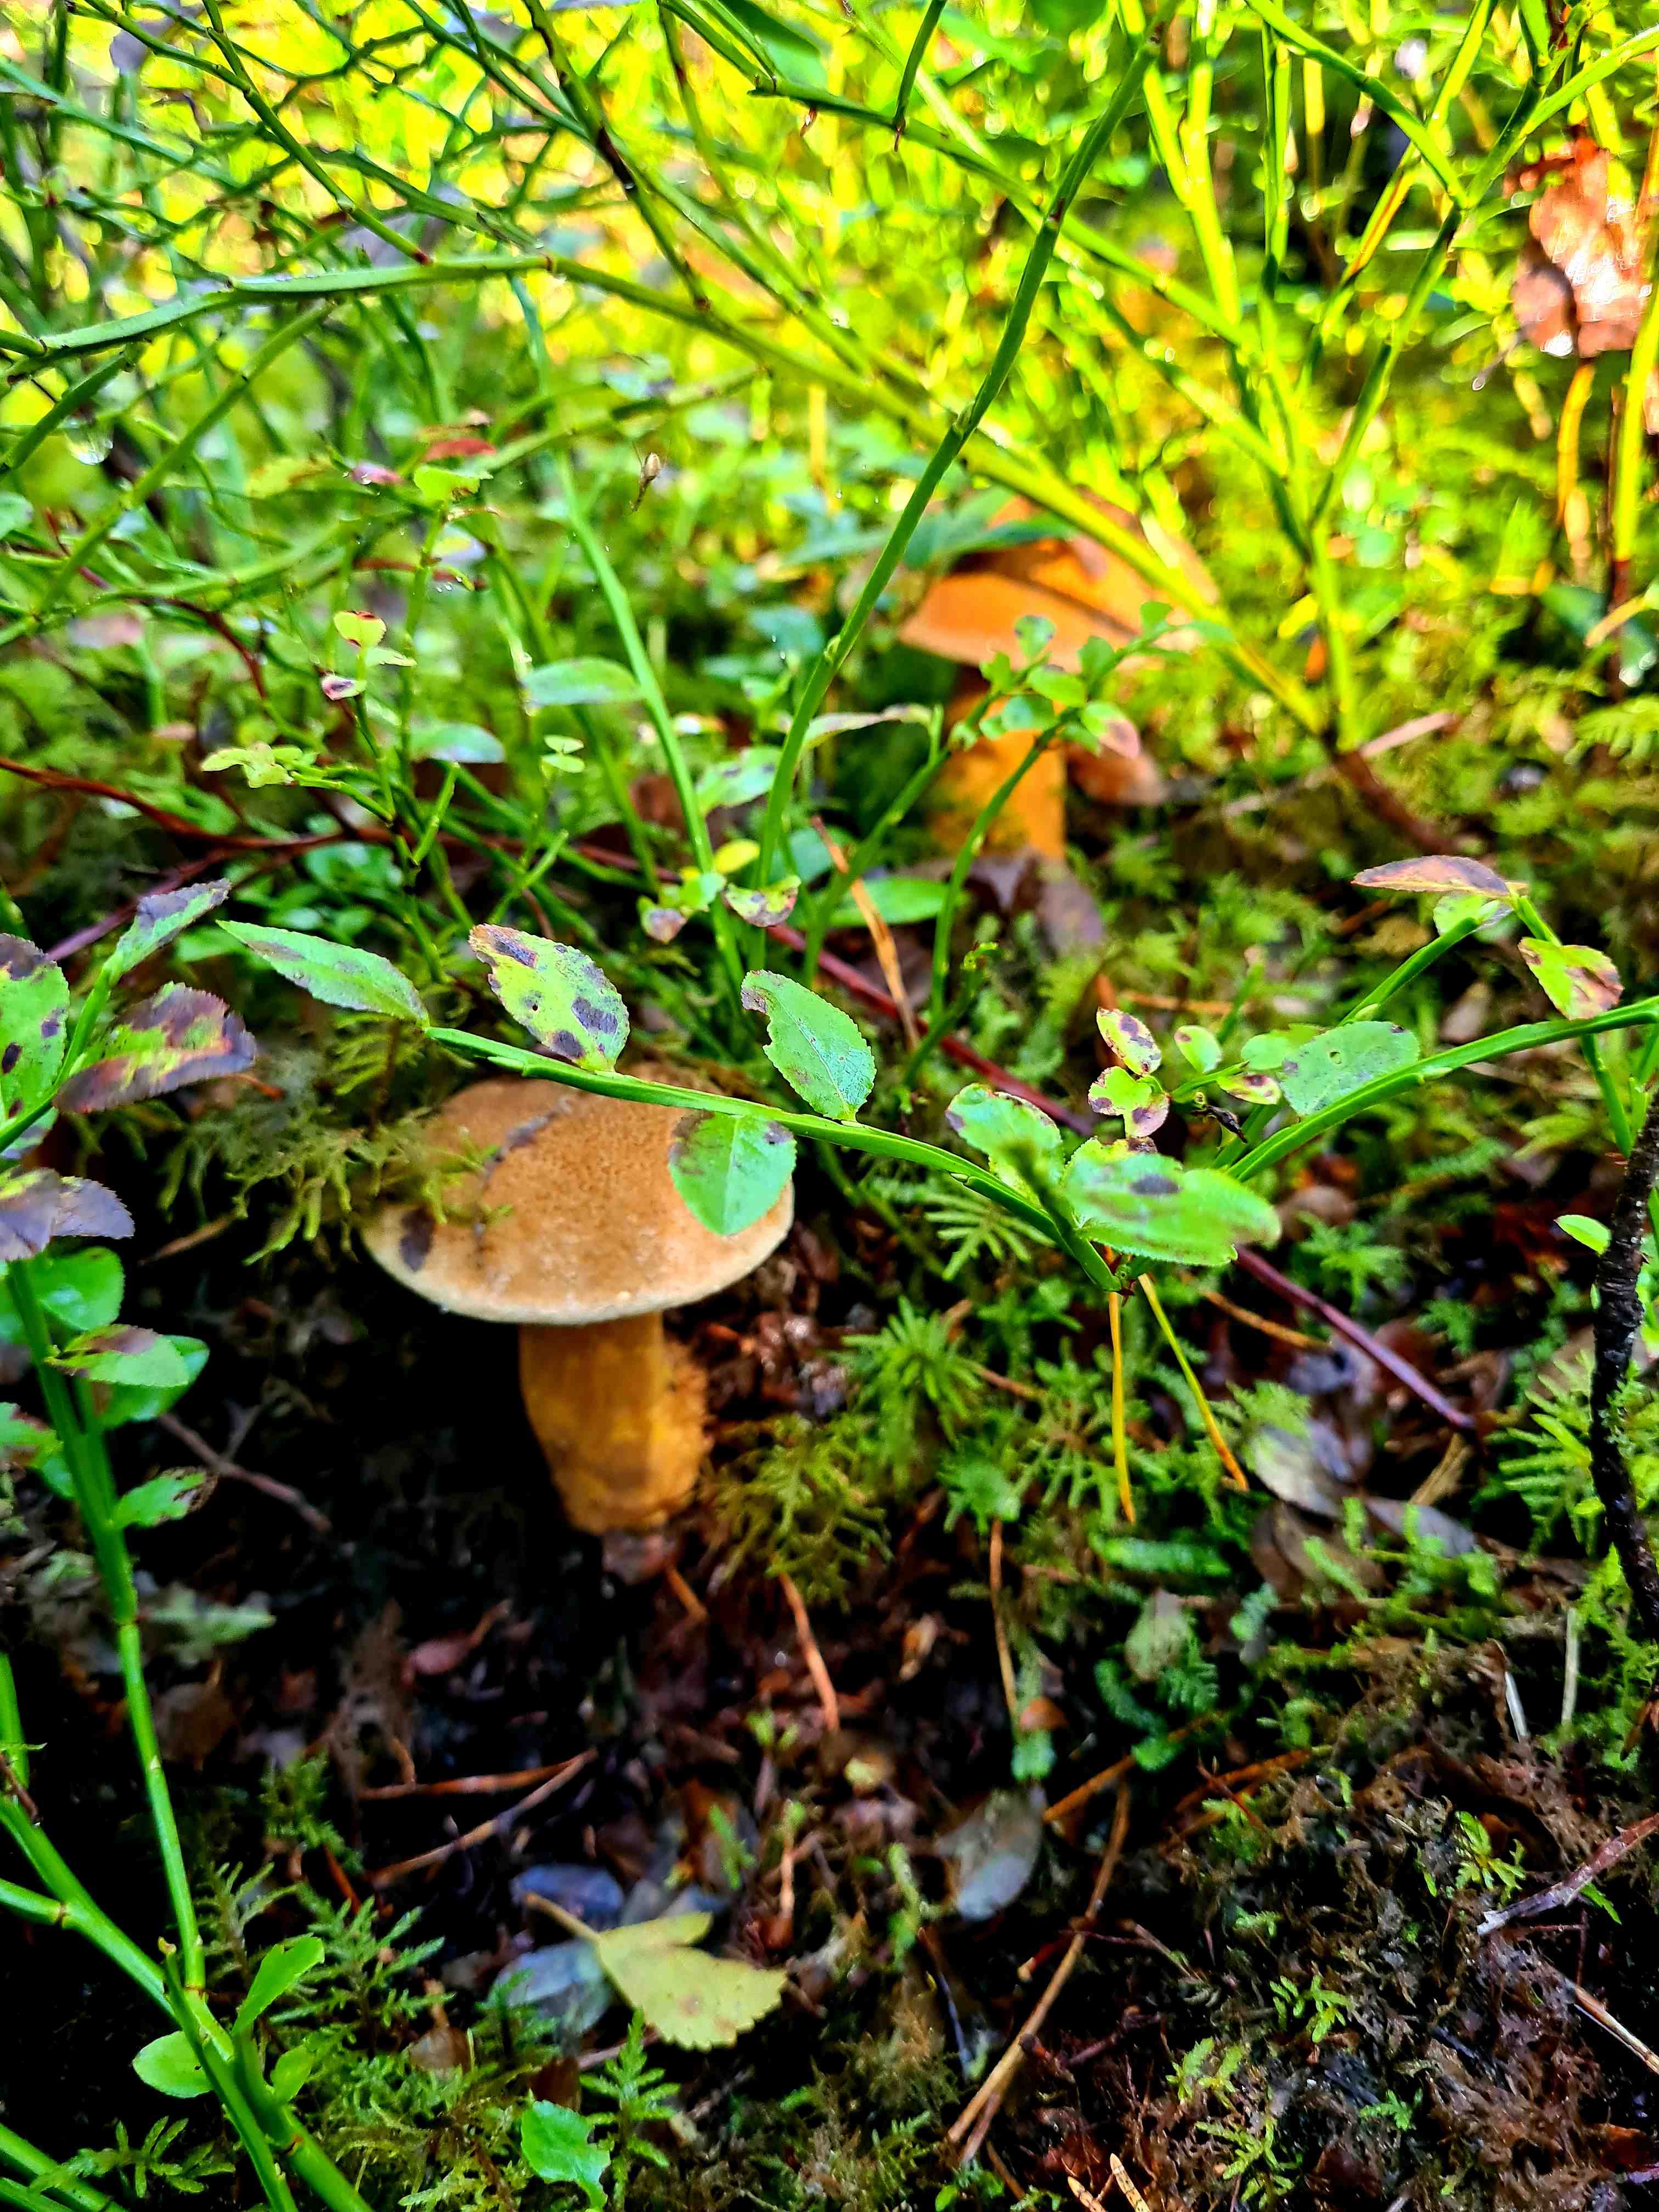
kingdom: Fungi
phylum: Basidiomycota
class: Agaricomycetes
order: Boletales
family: Suillaceae
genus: Suillus
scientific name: Suillus variegatus
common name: broget slimrørhat
